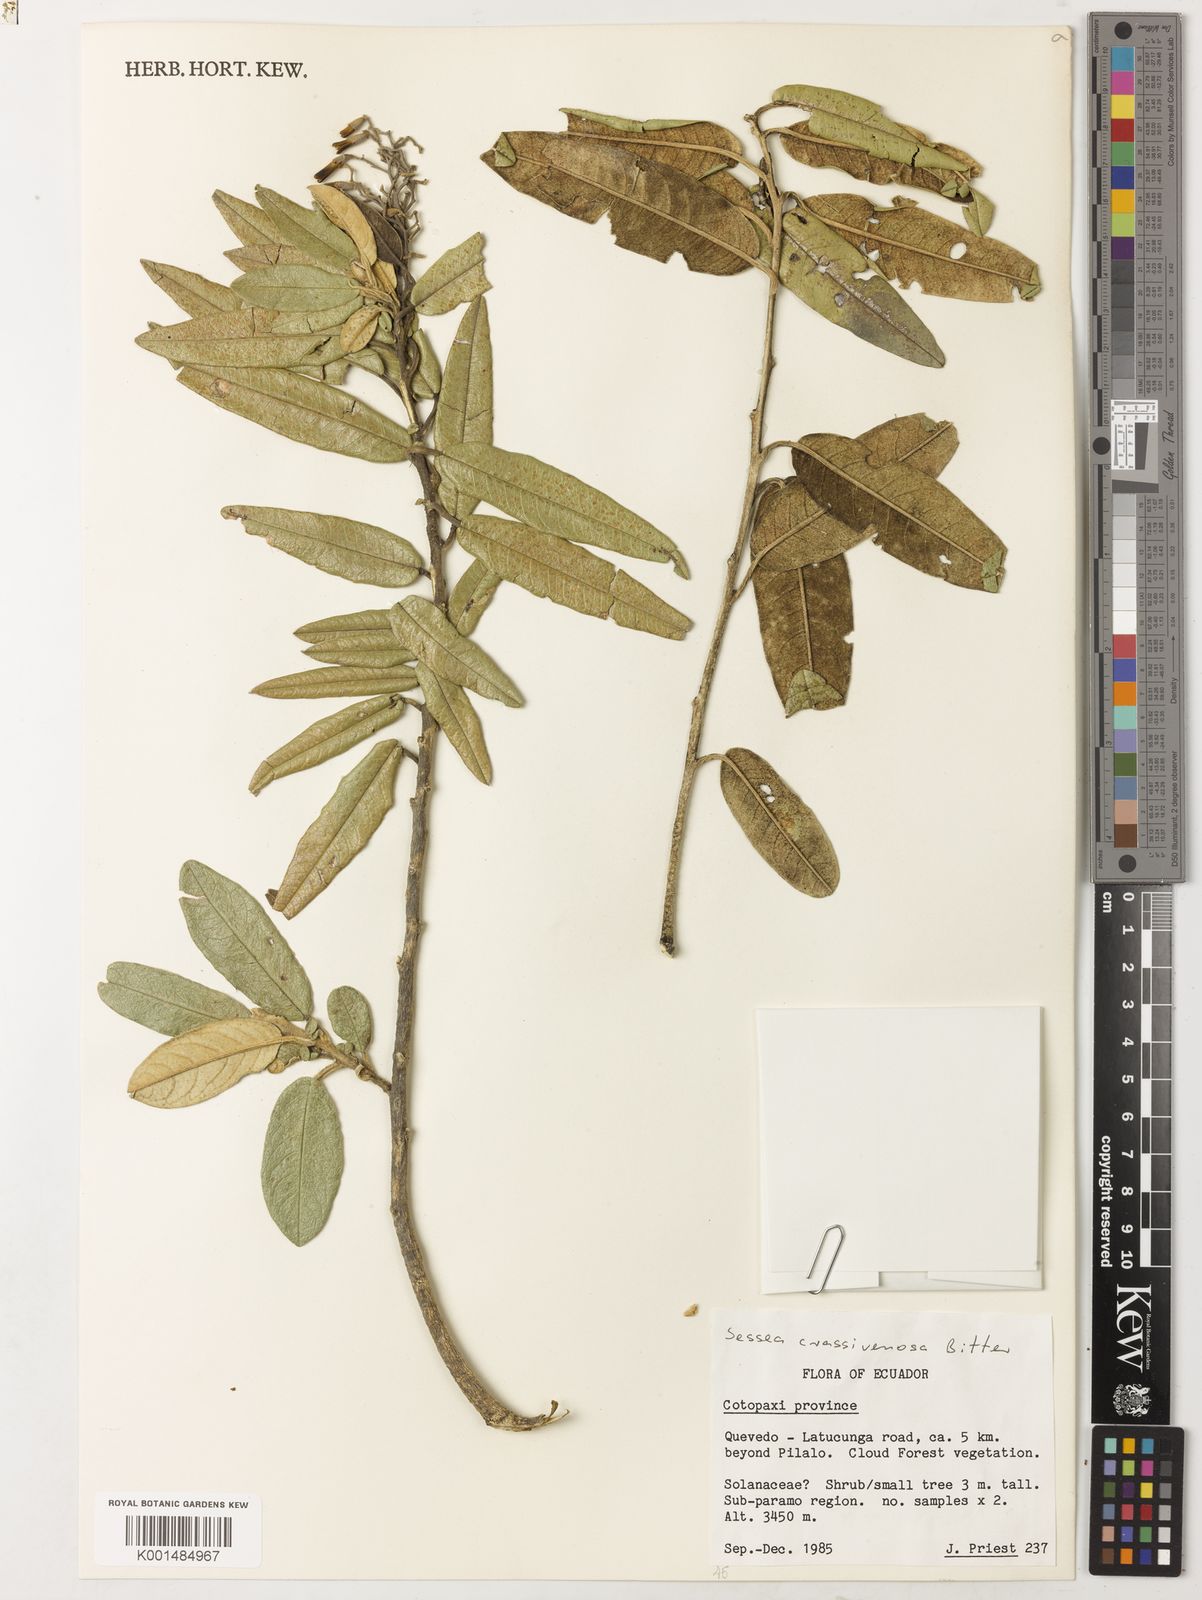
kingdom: Plantae
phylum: Tracheophyta
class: Magnoliopsida
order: Solanales
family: Solanaceae
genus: Sessea
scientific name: Sessea crassivenosa
